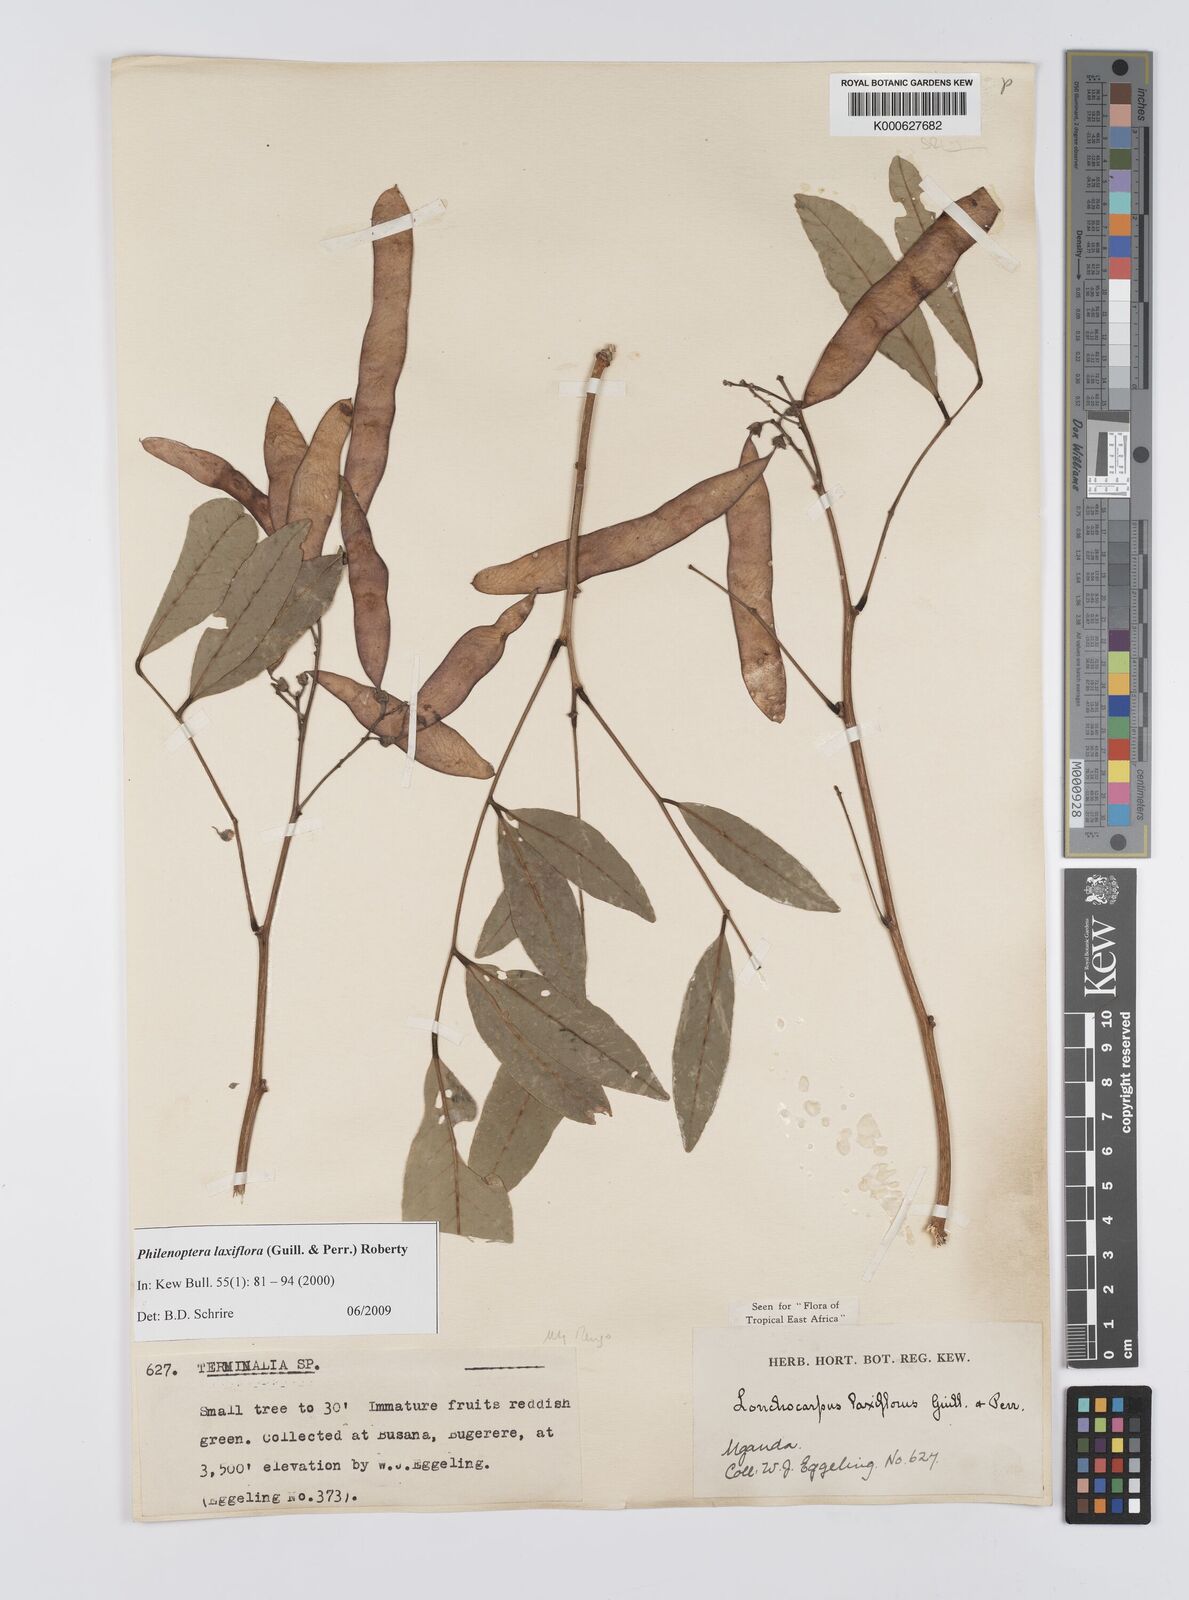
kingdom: Plantae
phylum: Tracheophyta
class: Magnoliopsida
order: Fabales
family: Fabaceae
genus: Philenoptera
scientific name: Philenoptera laxiflora
